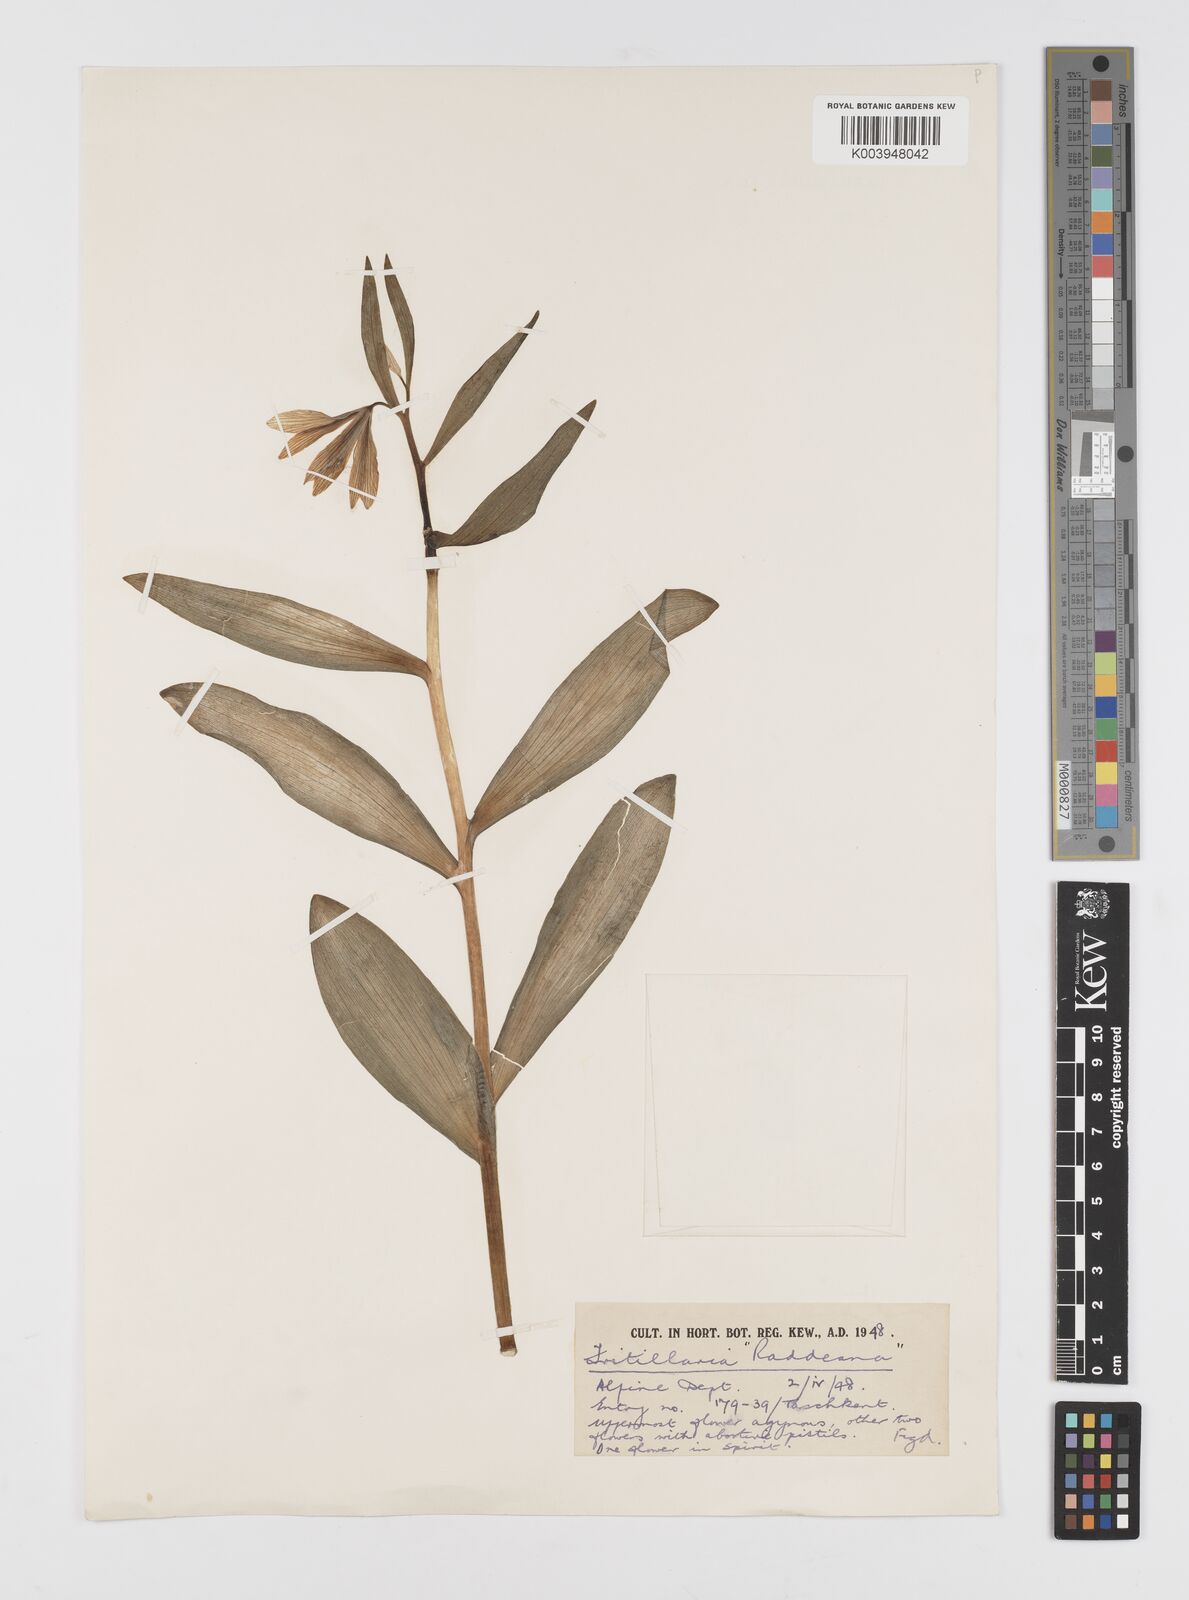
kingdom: Plantae
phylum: Tracheophyta
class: Liliopsida
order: Liliales
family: Liliaceae
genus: Fritillaria
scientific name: Fritillaria sewerzowii
